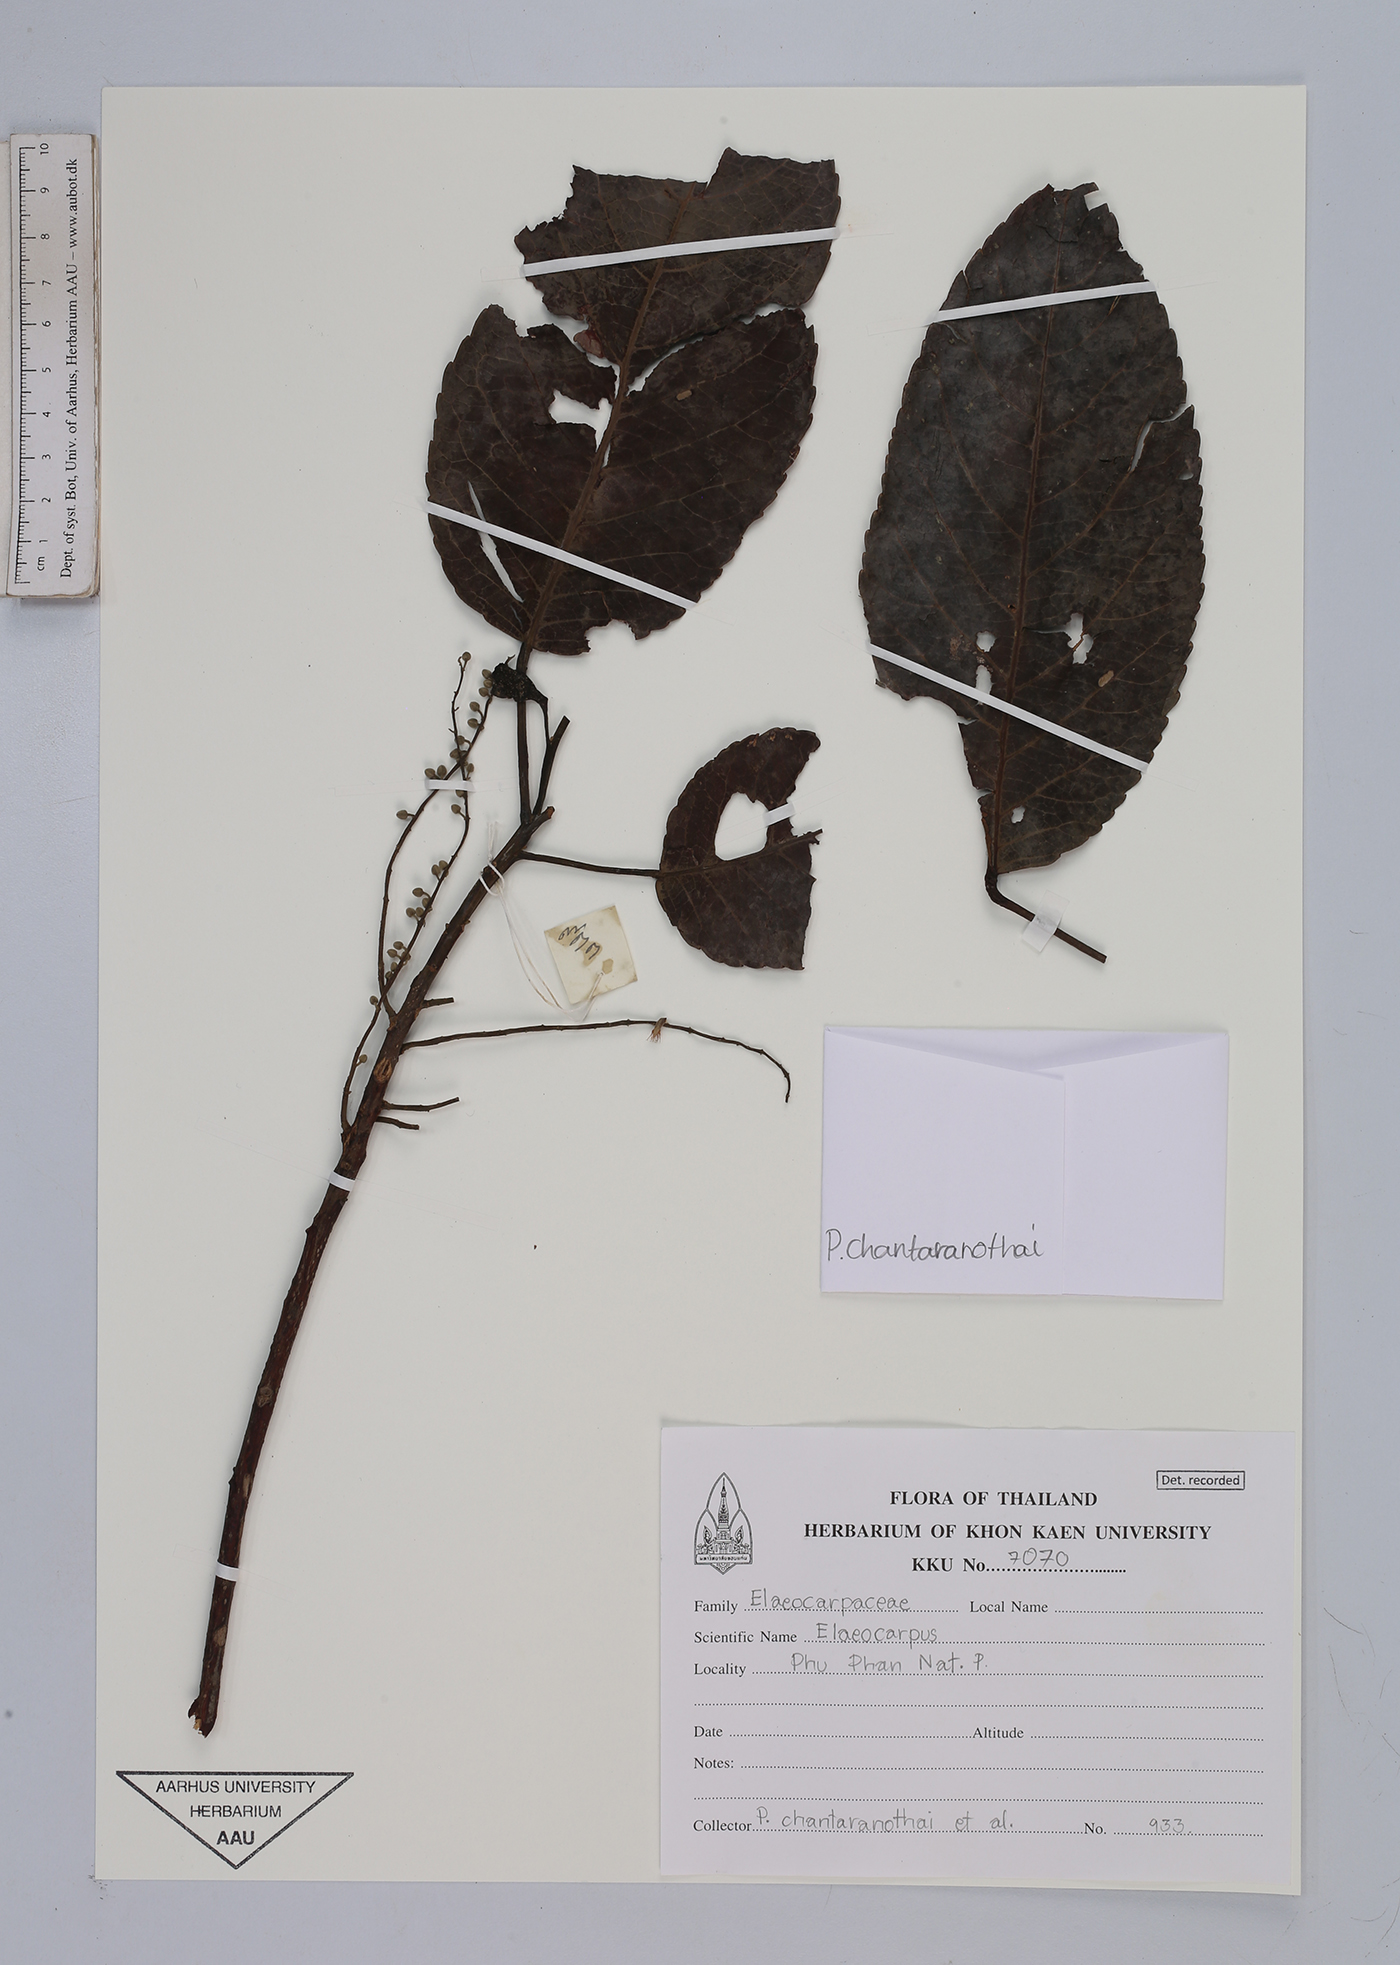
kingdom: Plantae
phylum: Tracheophyta
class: Magnoliopsida
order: Oxalidales
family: Elaeocarpaceae
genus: Elaeocarpus
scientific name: Elaeocarpus
